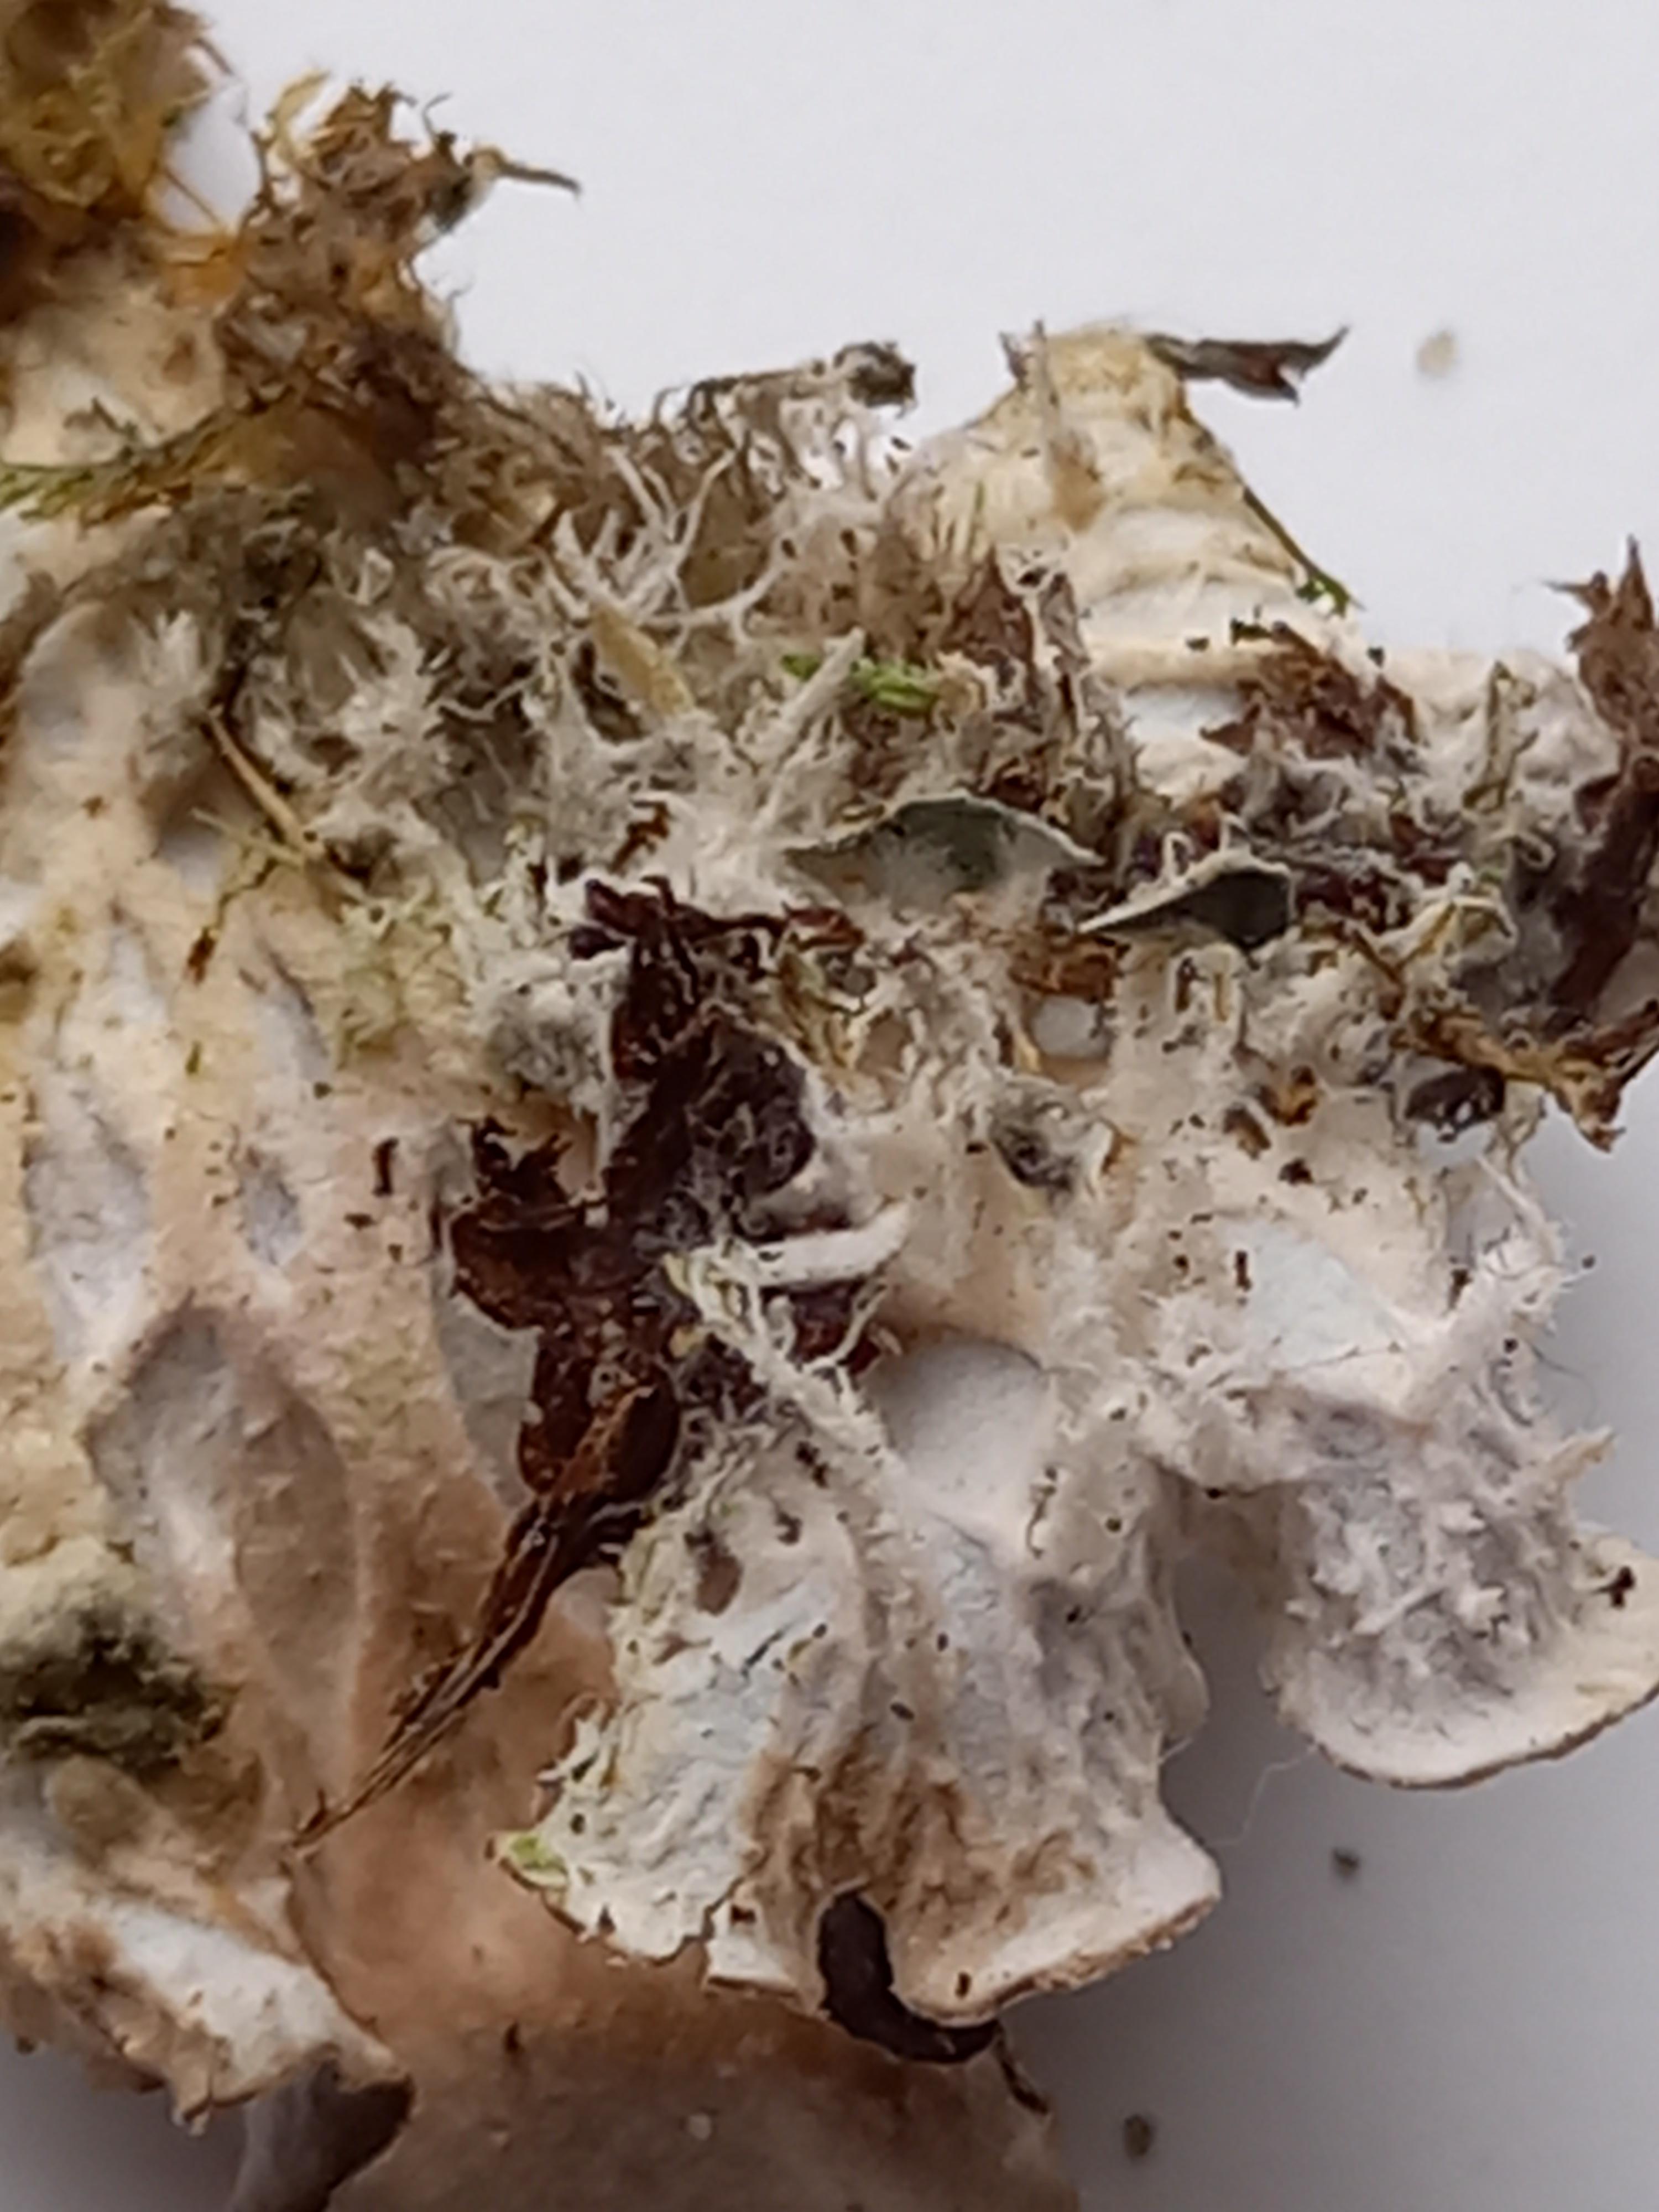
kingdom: Fungi
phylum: Ascomycota
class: Lecanoromycetes
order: Peltigerales
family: Peltigeraceae
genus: Peltigera
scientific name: Peltigera
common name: skjoldlav
